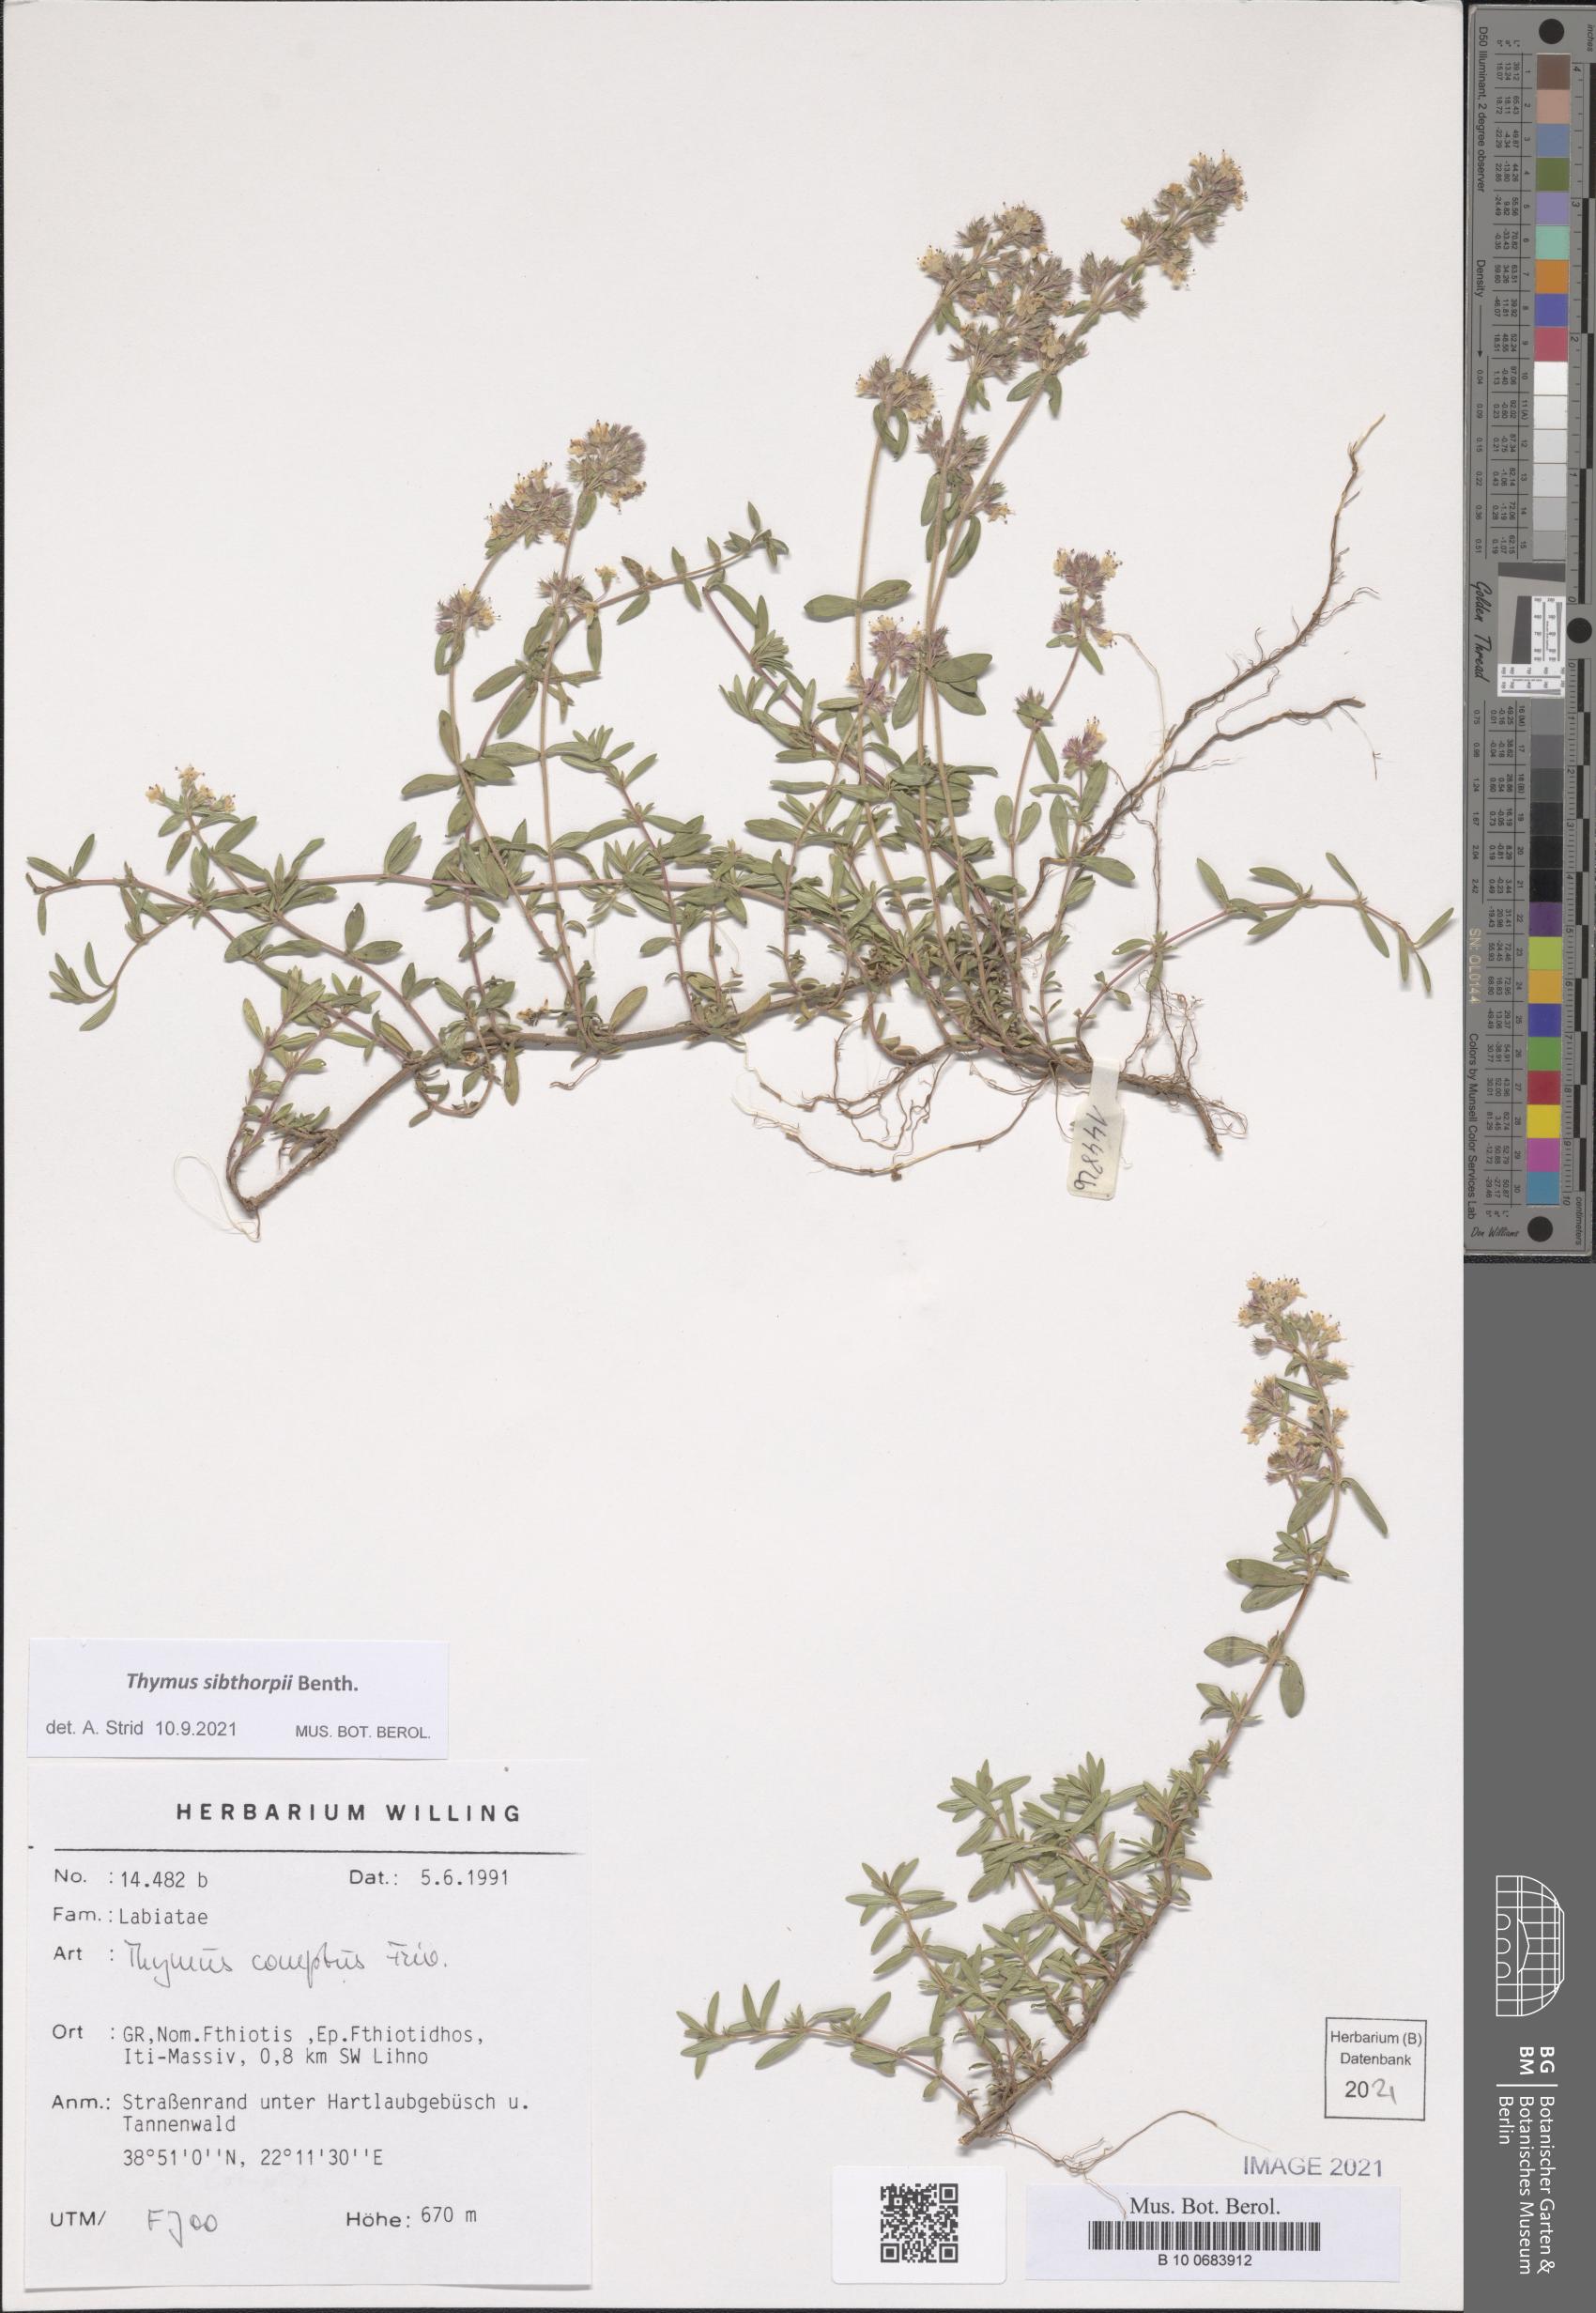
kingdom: Plantae
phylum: Tracheophyta
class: Magnoliopsida
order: Lamiales
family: Lamiaceae
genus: Thymus
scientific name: Thymus sibthorpii
